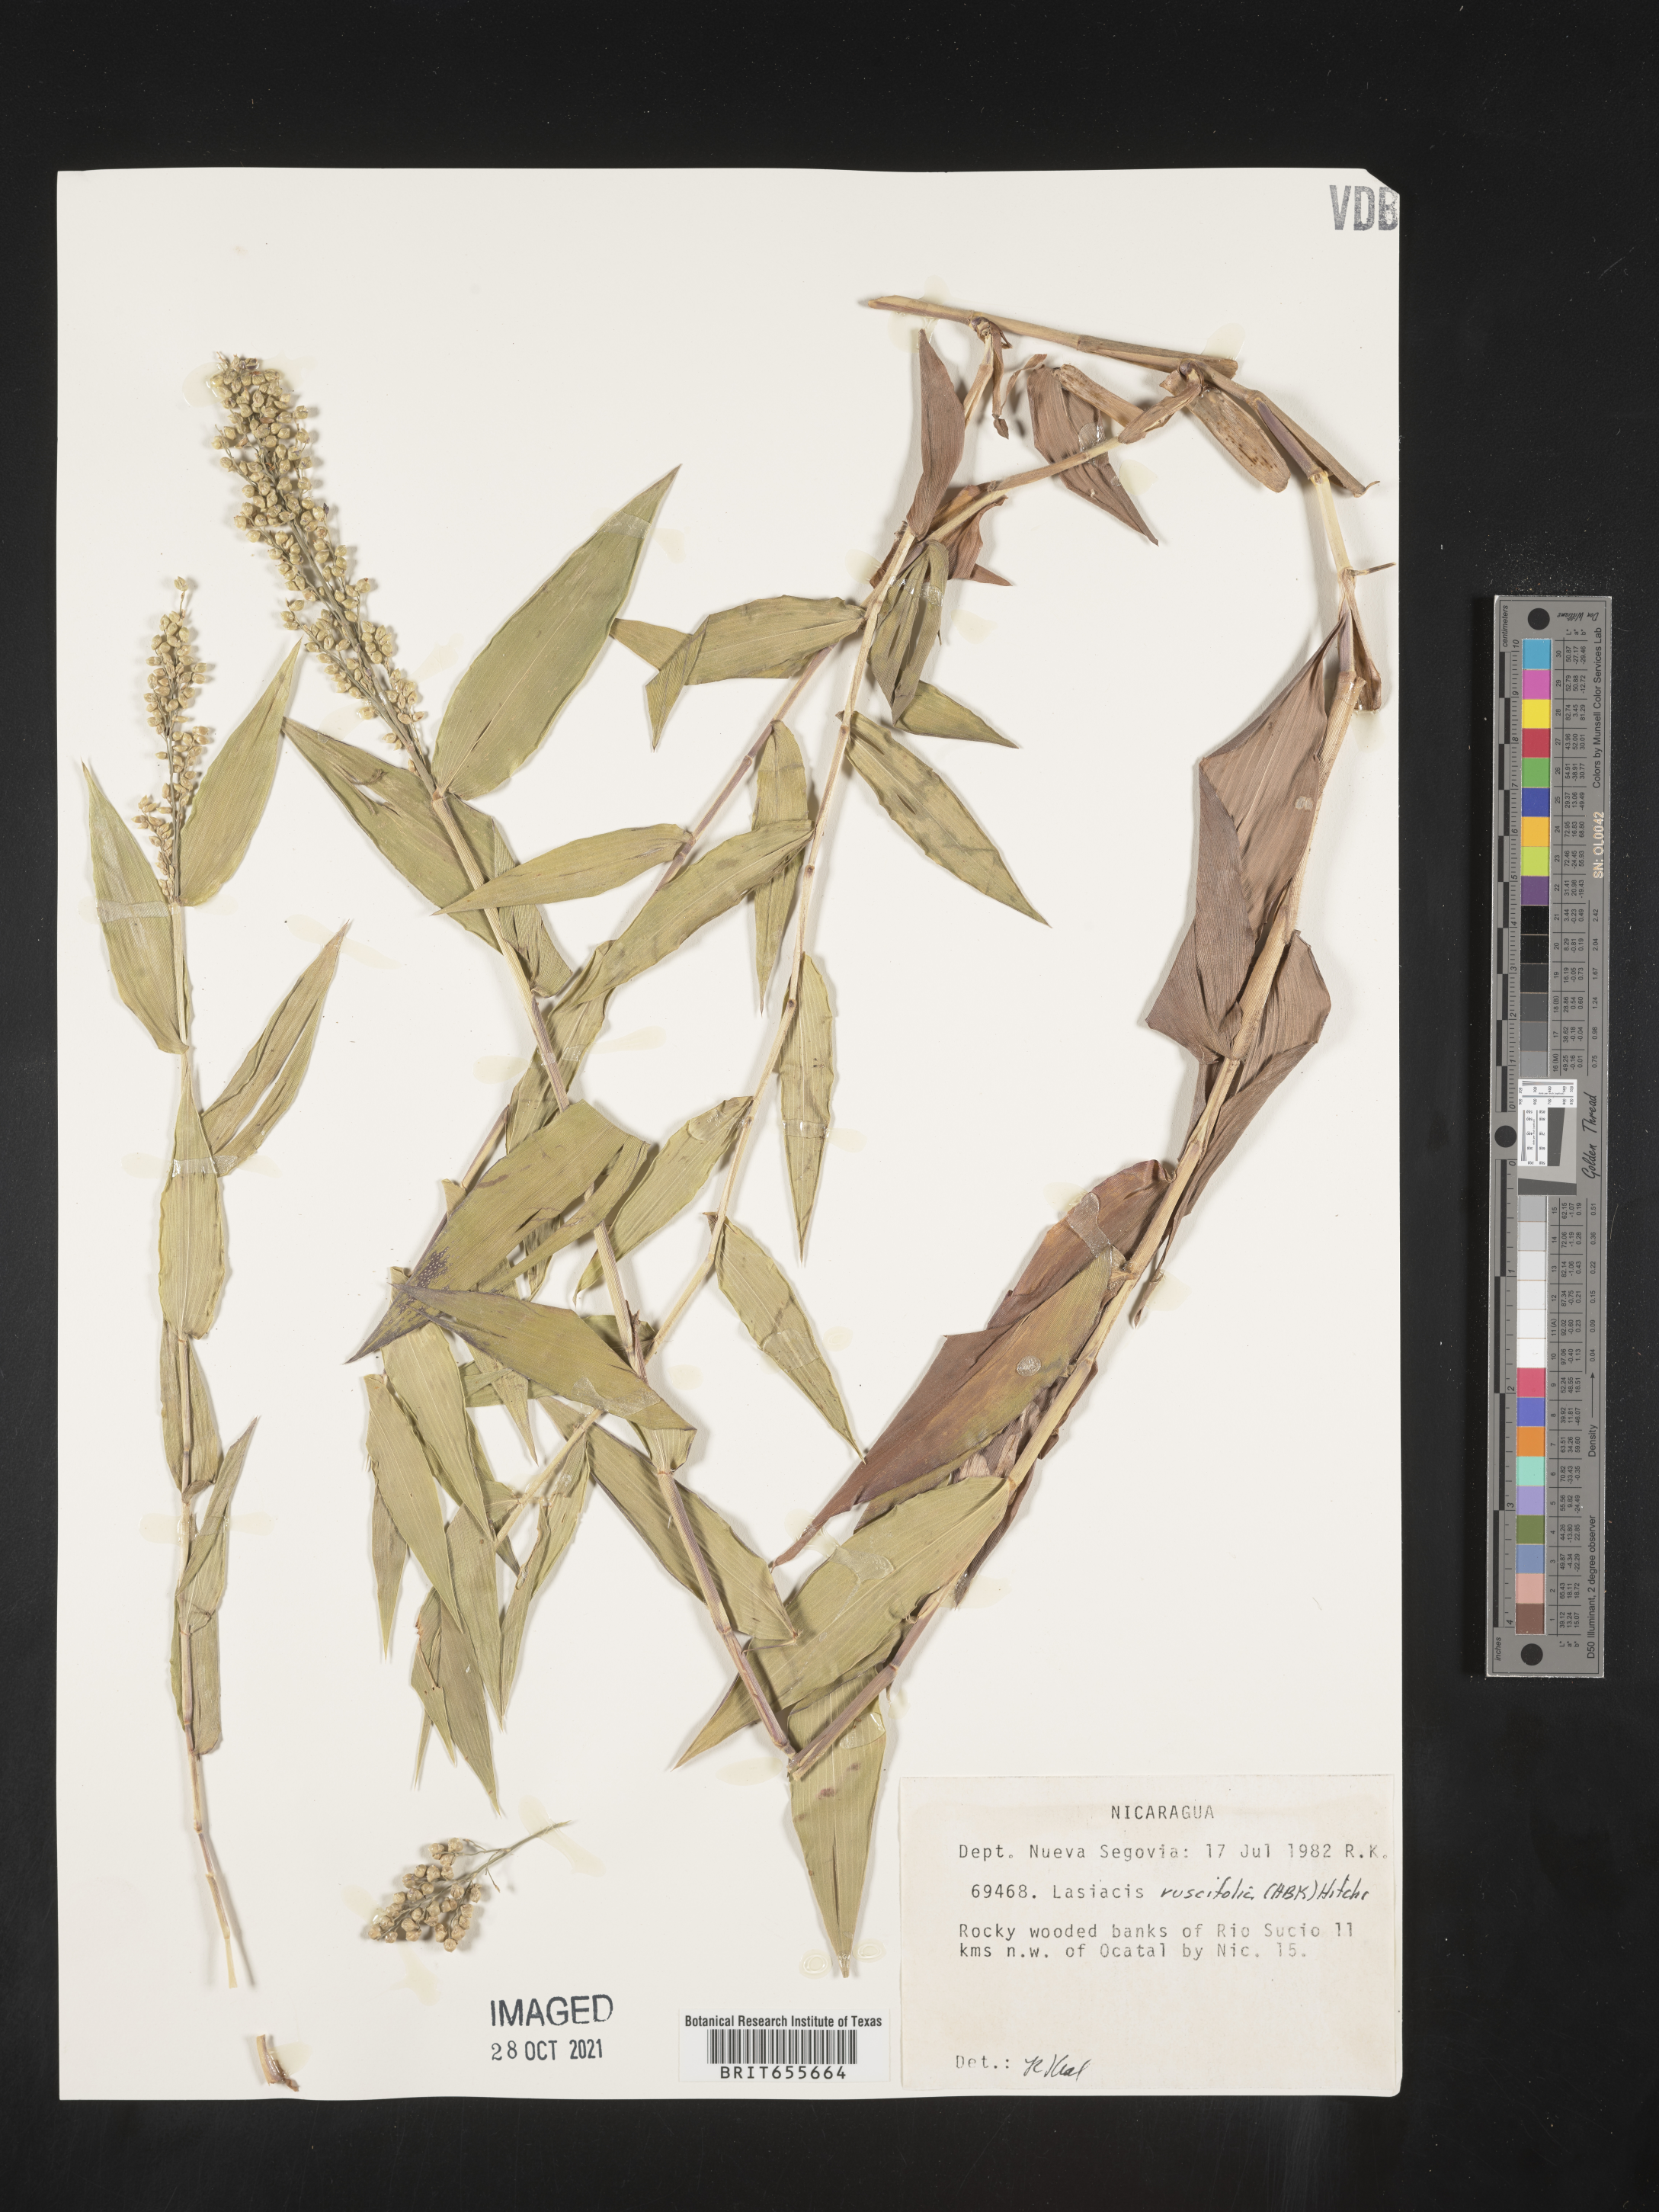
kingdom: Plantae
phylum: Tracheophyta
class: Liliopsida
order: Poales
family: Poaceae
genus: Lasiacis
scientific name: Lasiacis
